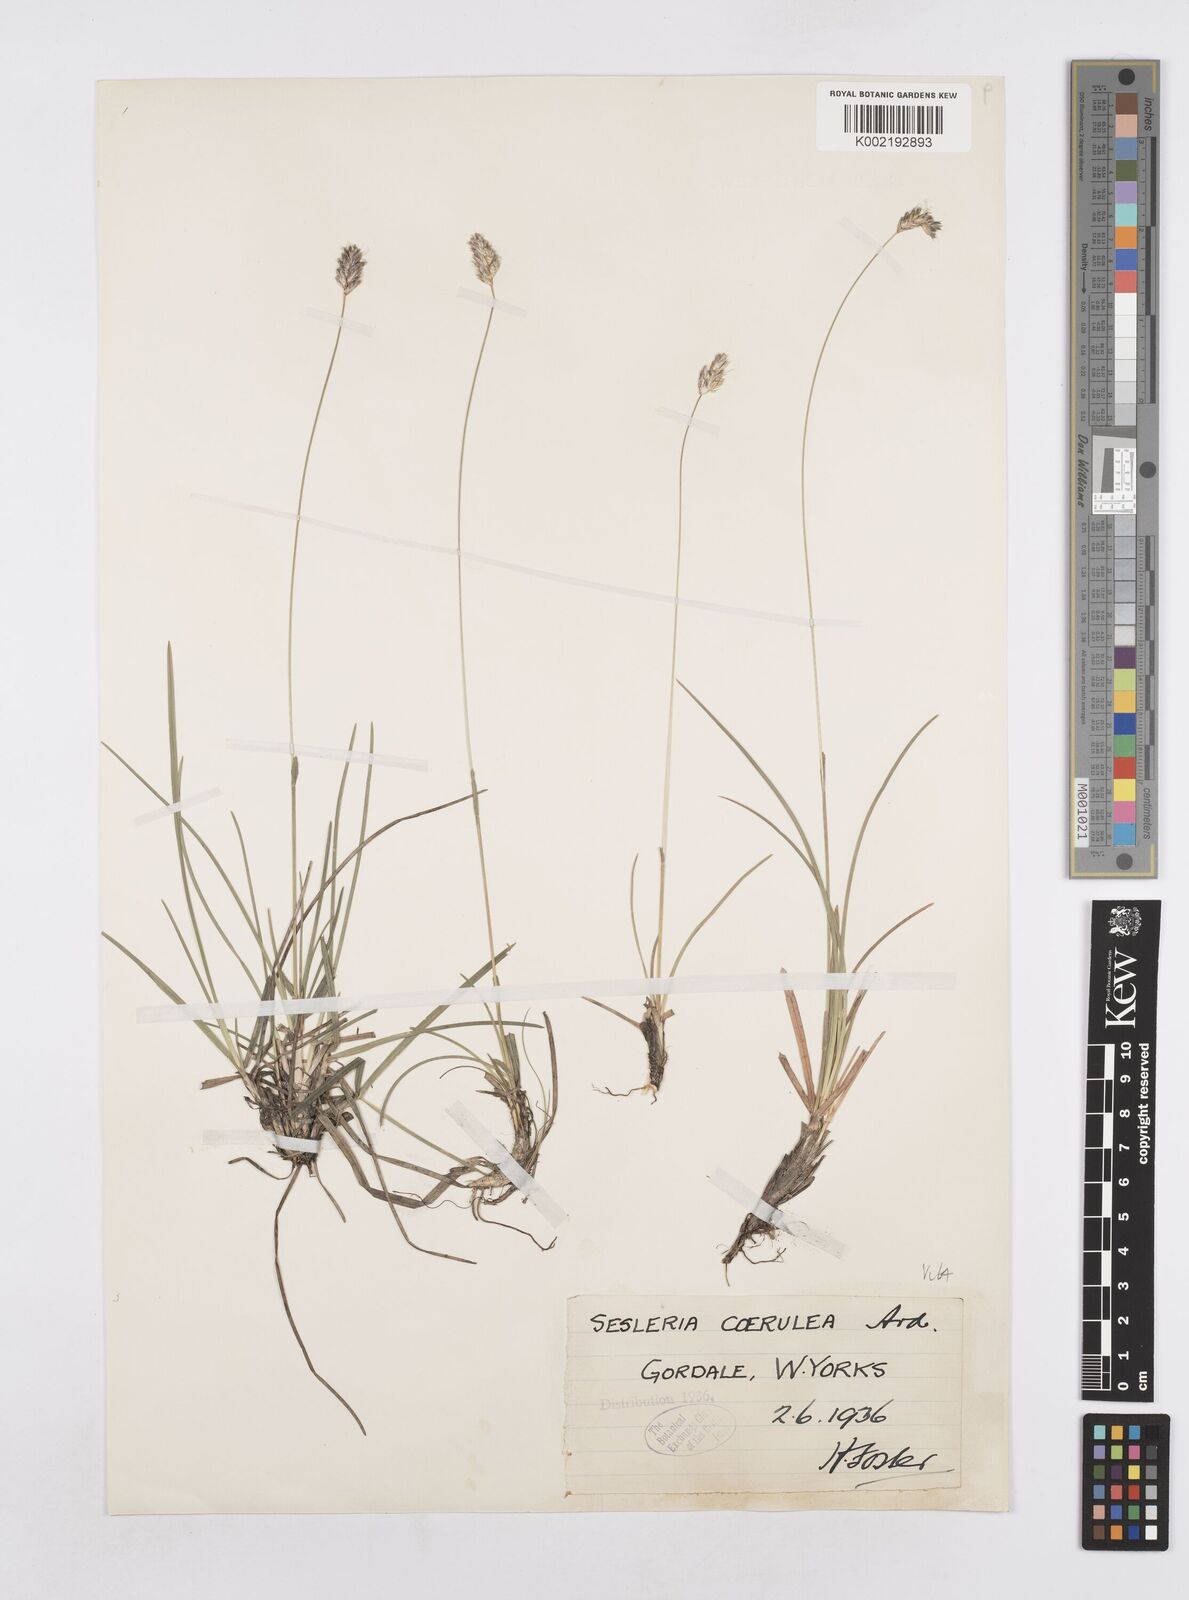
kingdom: Plantae
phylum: Tracheophyta
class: Liliopsida
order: Poales
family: Poaceae
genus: Sesleria
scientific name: Sesleria caerulea
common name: Blue moor-grass
